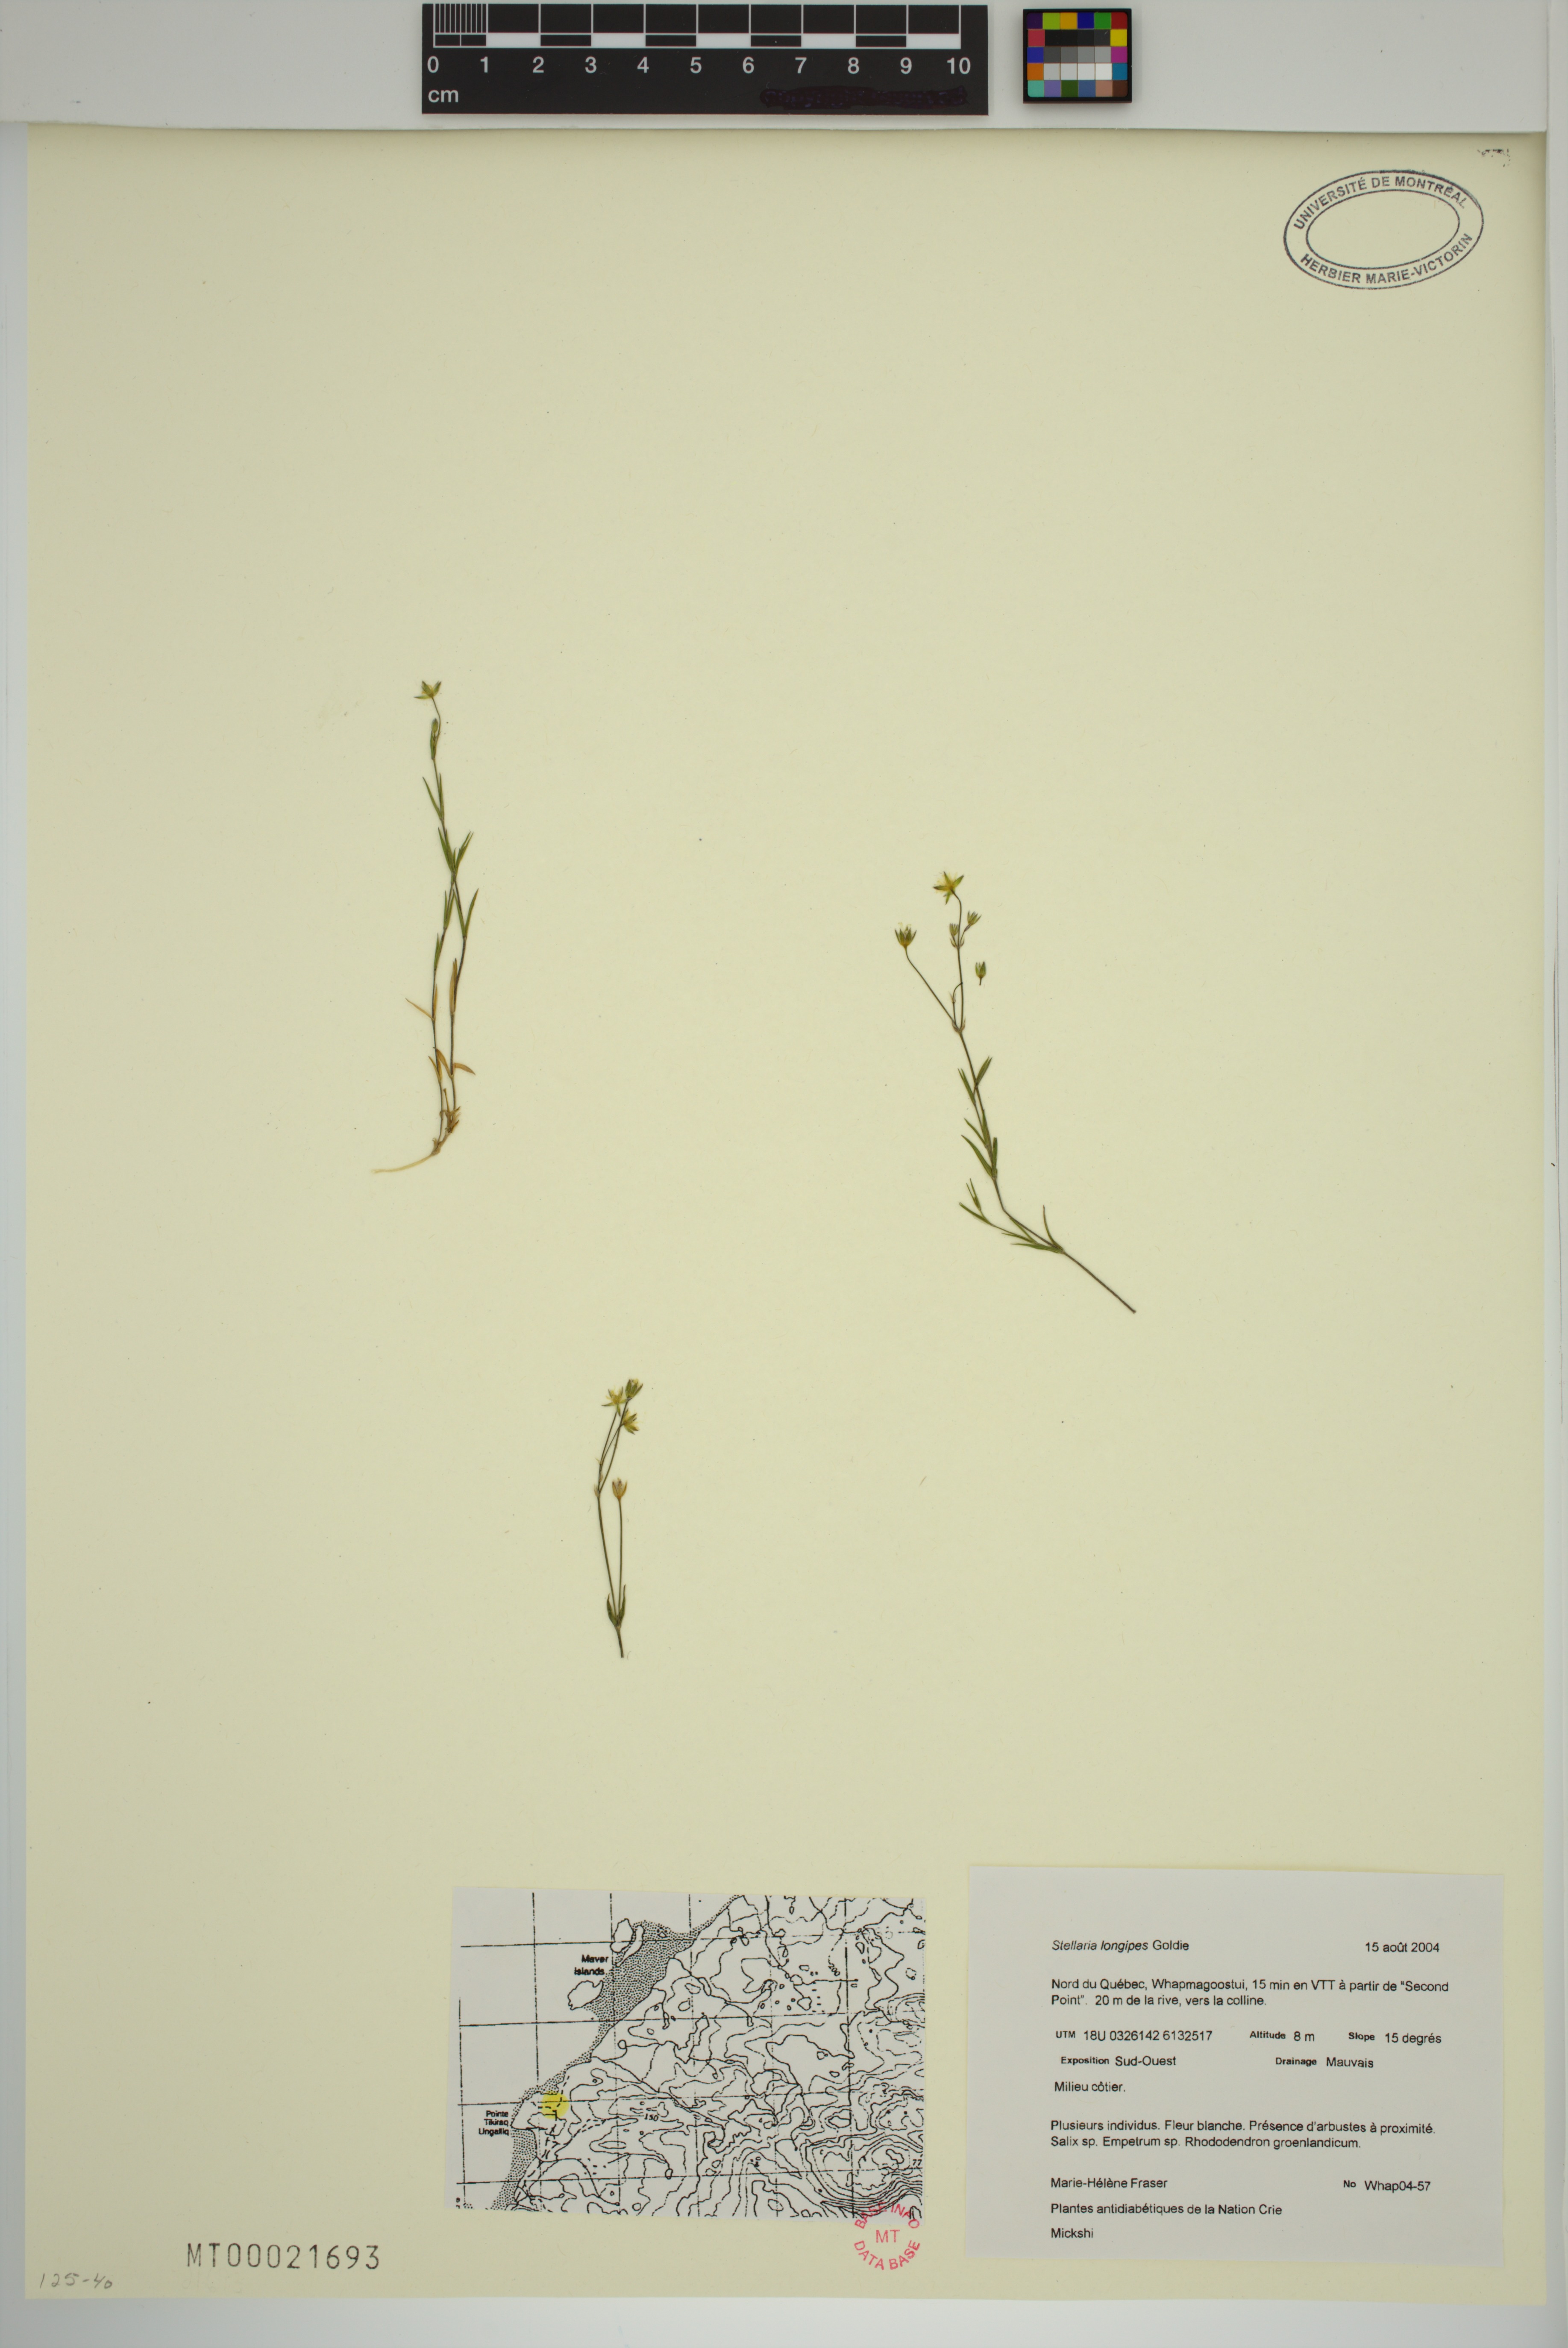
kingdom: Plantae
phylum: Tracheophyta
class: Magnoliopsida
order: Caryophyllales
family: Caryophyllaceae
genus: Stellaria
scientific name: Stellaria longipes
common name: Goldie's starwort
